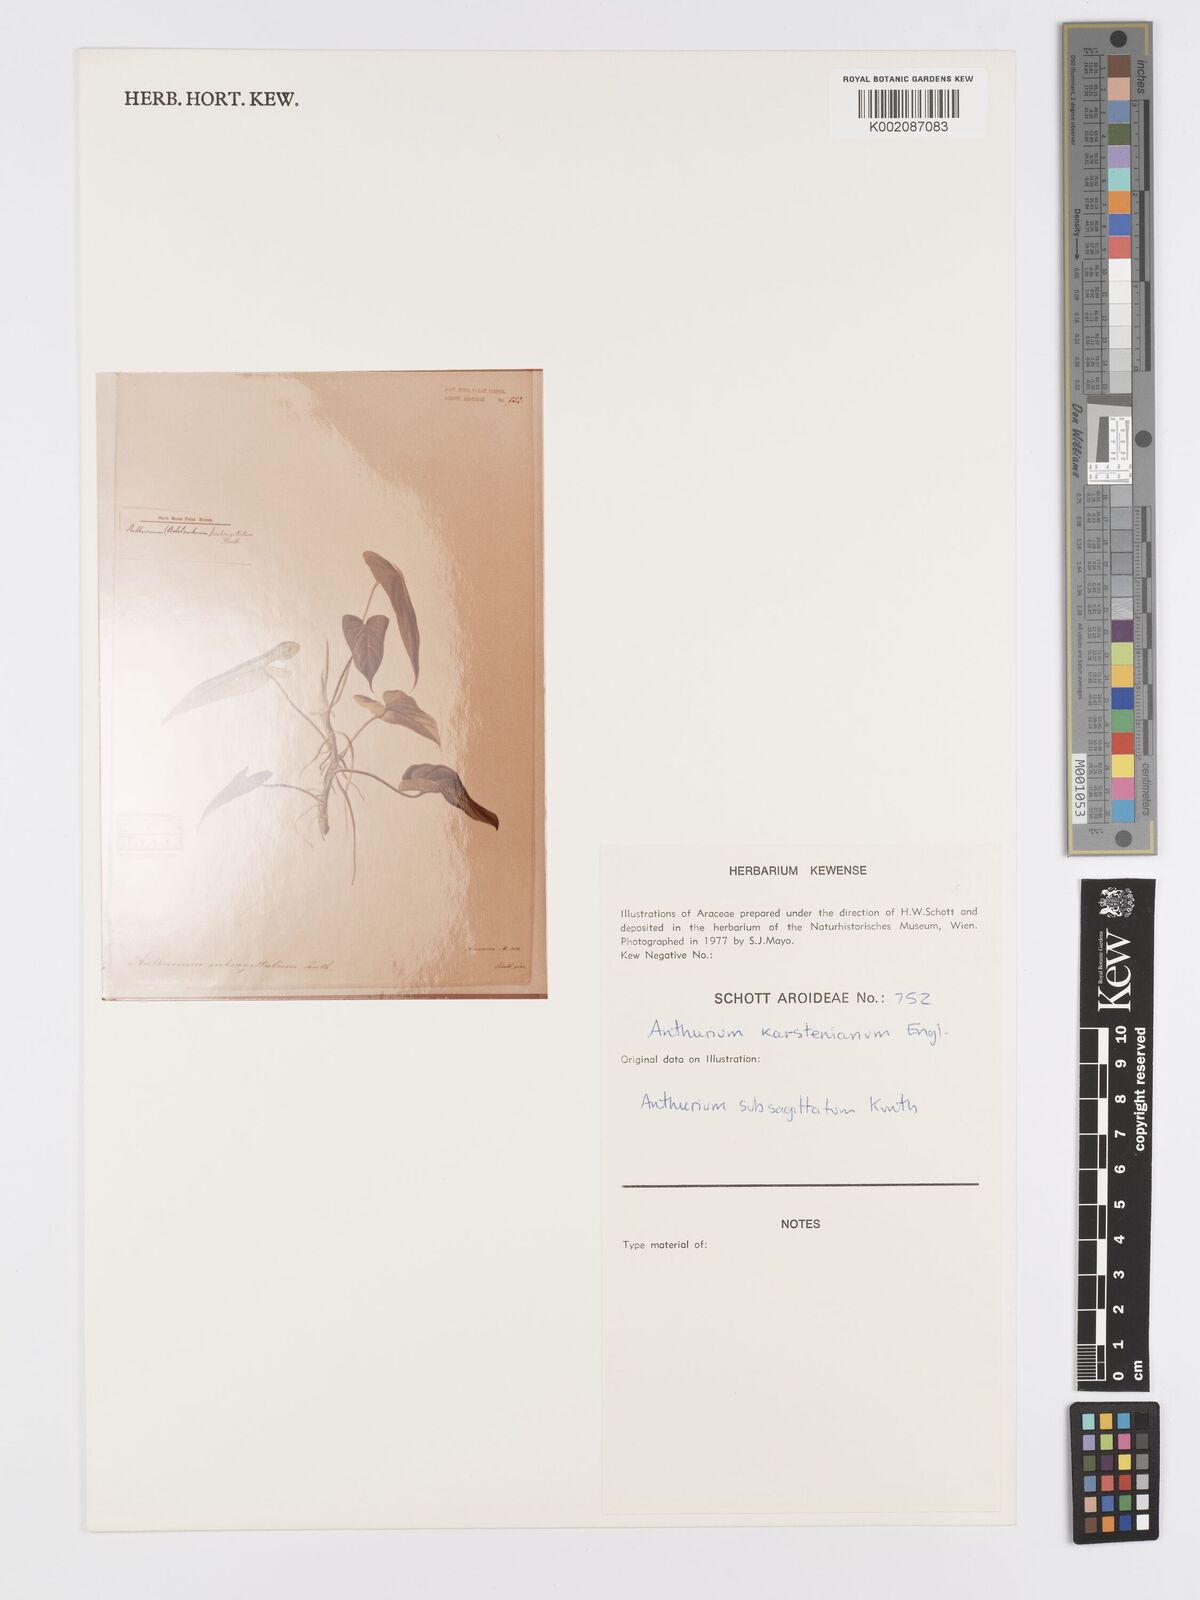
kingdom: Plantae
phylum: Tracheophyta
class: Liliopsida
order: Alismatales
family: Araceae
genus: Anthurium
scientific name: Anthurium subsagittatum
